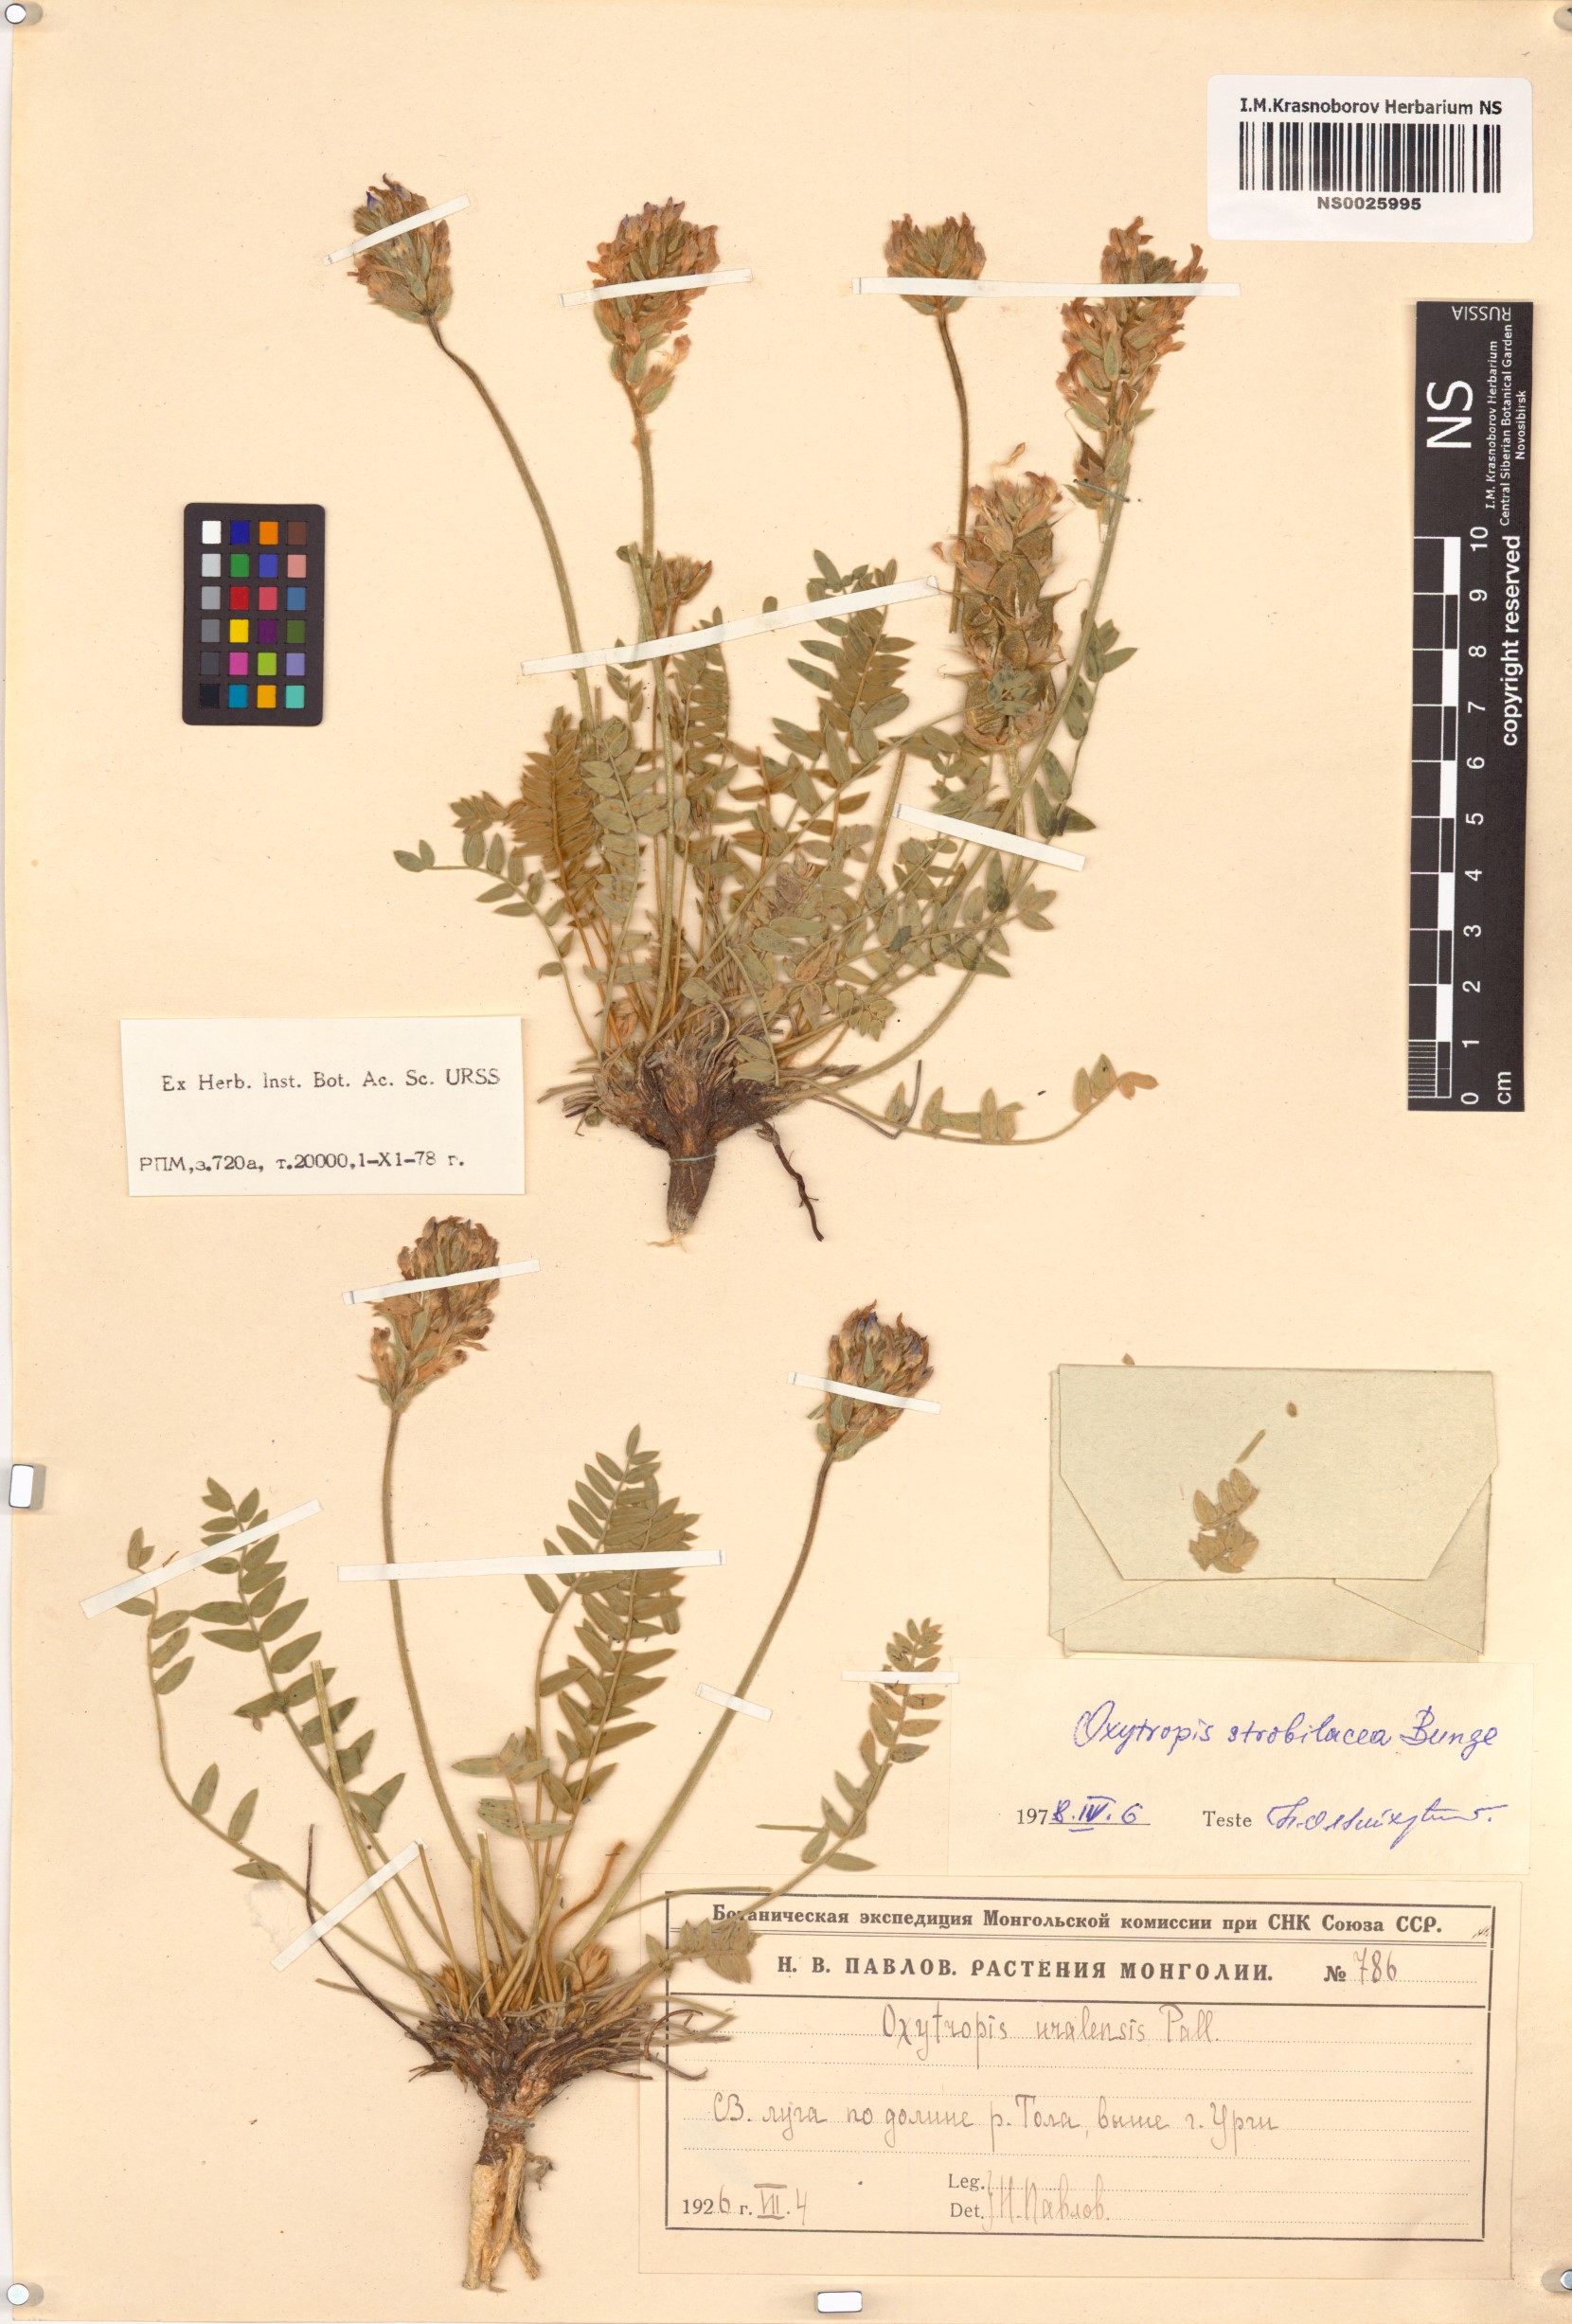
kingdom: Plantae
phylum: Tracheophyta
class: Magnoliopsida
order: Fabales
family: Fabaceae
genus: Oxytropis
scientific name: Oxytropis strobilacea
